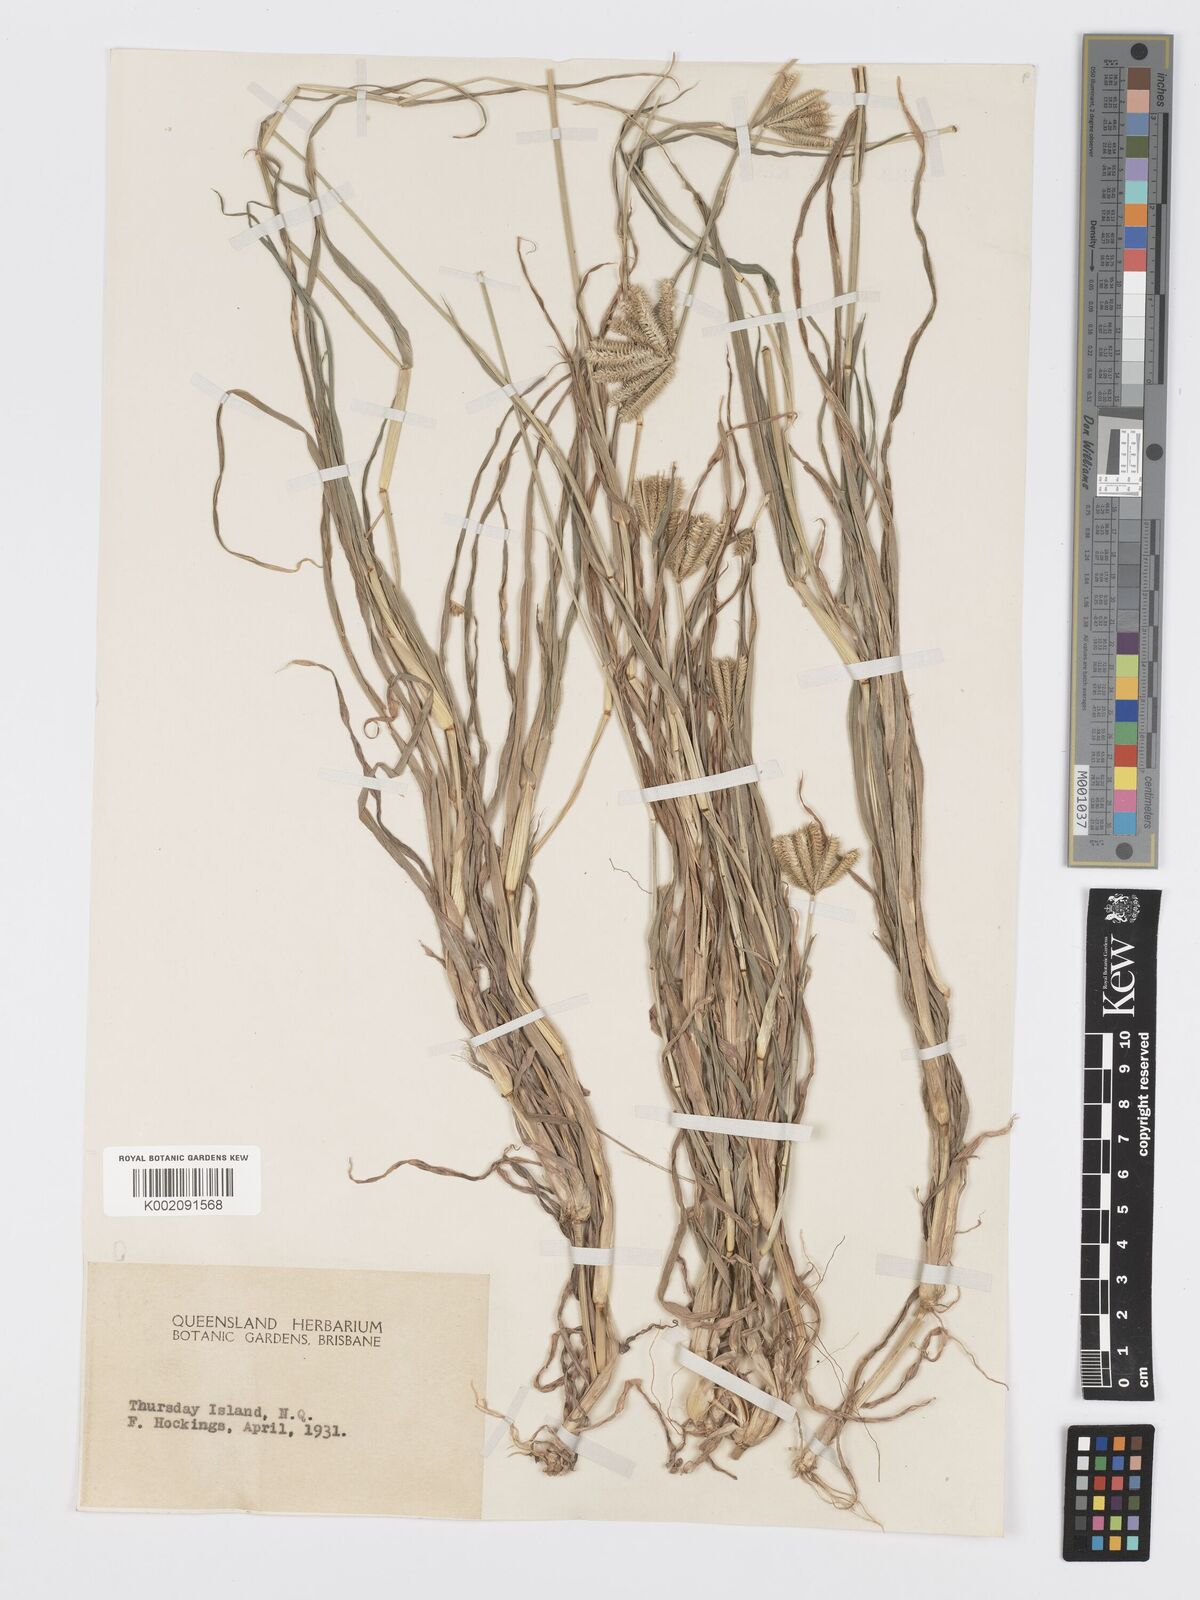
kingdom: Plantae
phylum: Tracheophyta
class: Liliopsida
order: Poales
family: Poaceae
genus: Dactyloctenium
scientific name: Dactyloctenium radulans
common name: Button-grass
